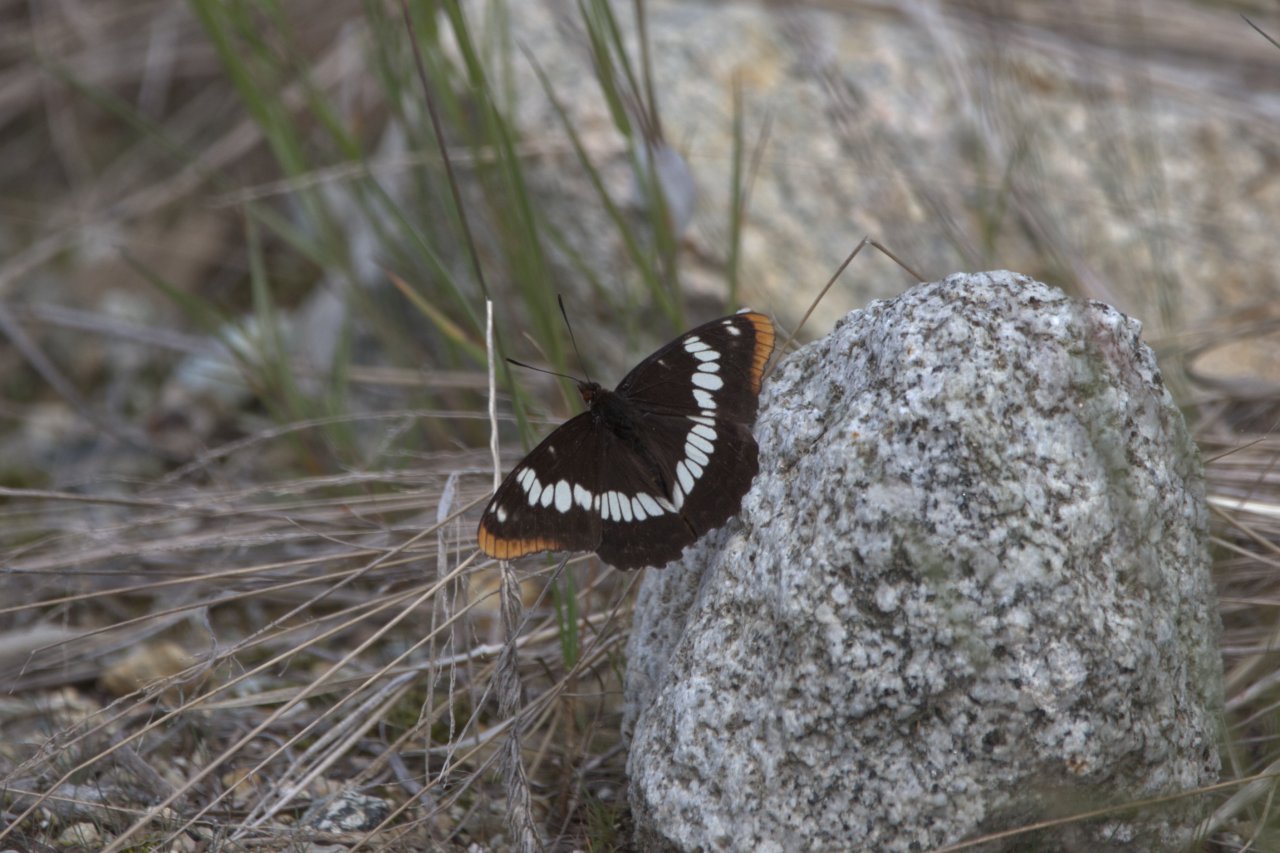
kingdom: Animalia
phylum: Arthropoda
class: Insecta
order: Lepidoptera
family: Nymphalidae
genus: Limenitis
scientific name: Limenitis lorquini
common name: Lorquin's Admiral
